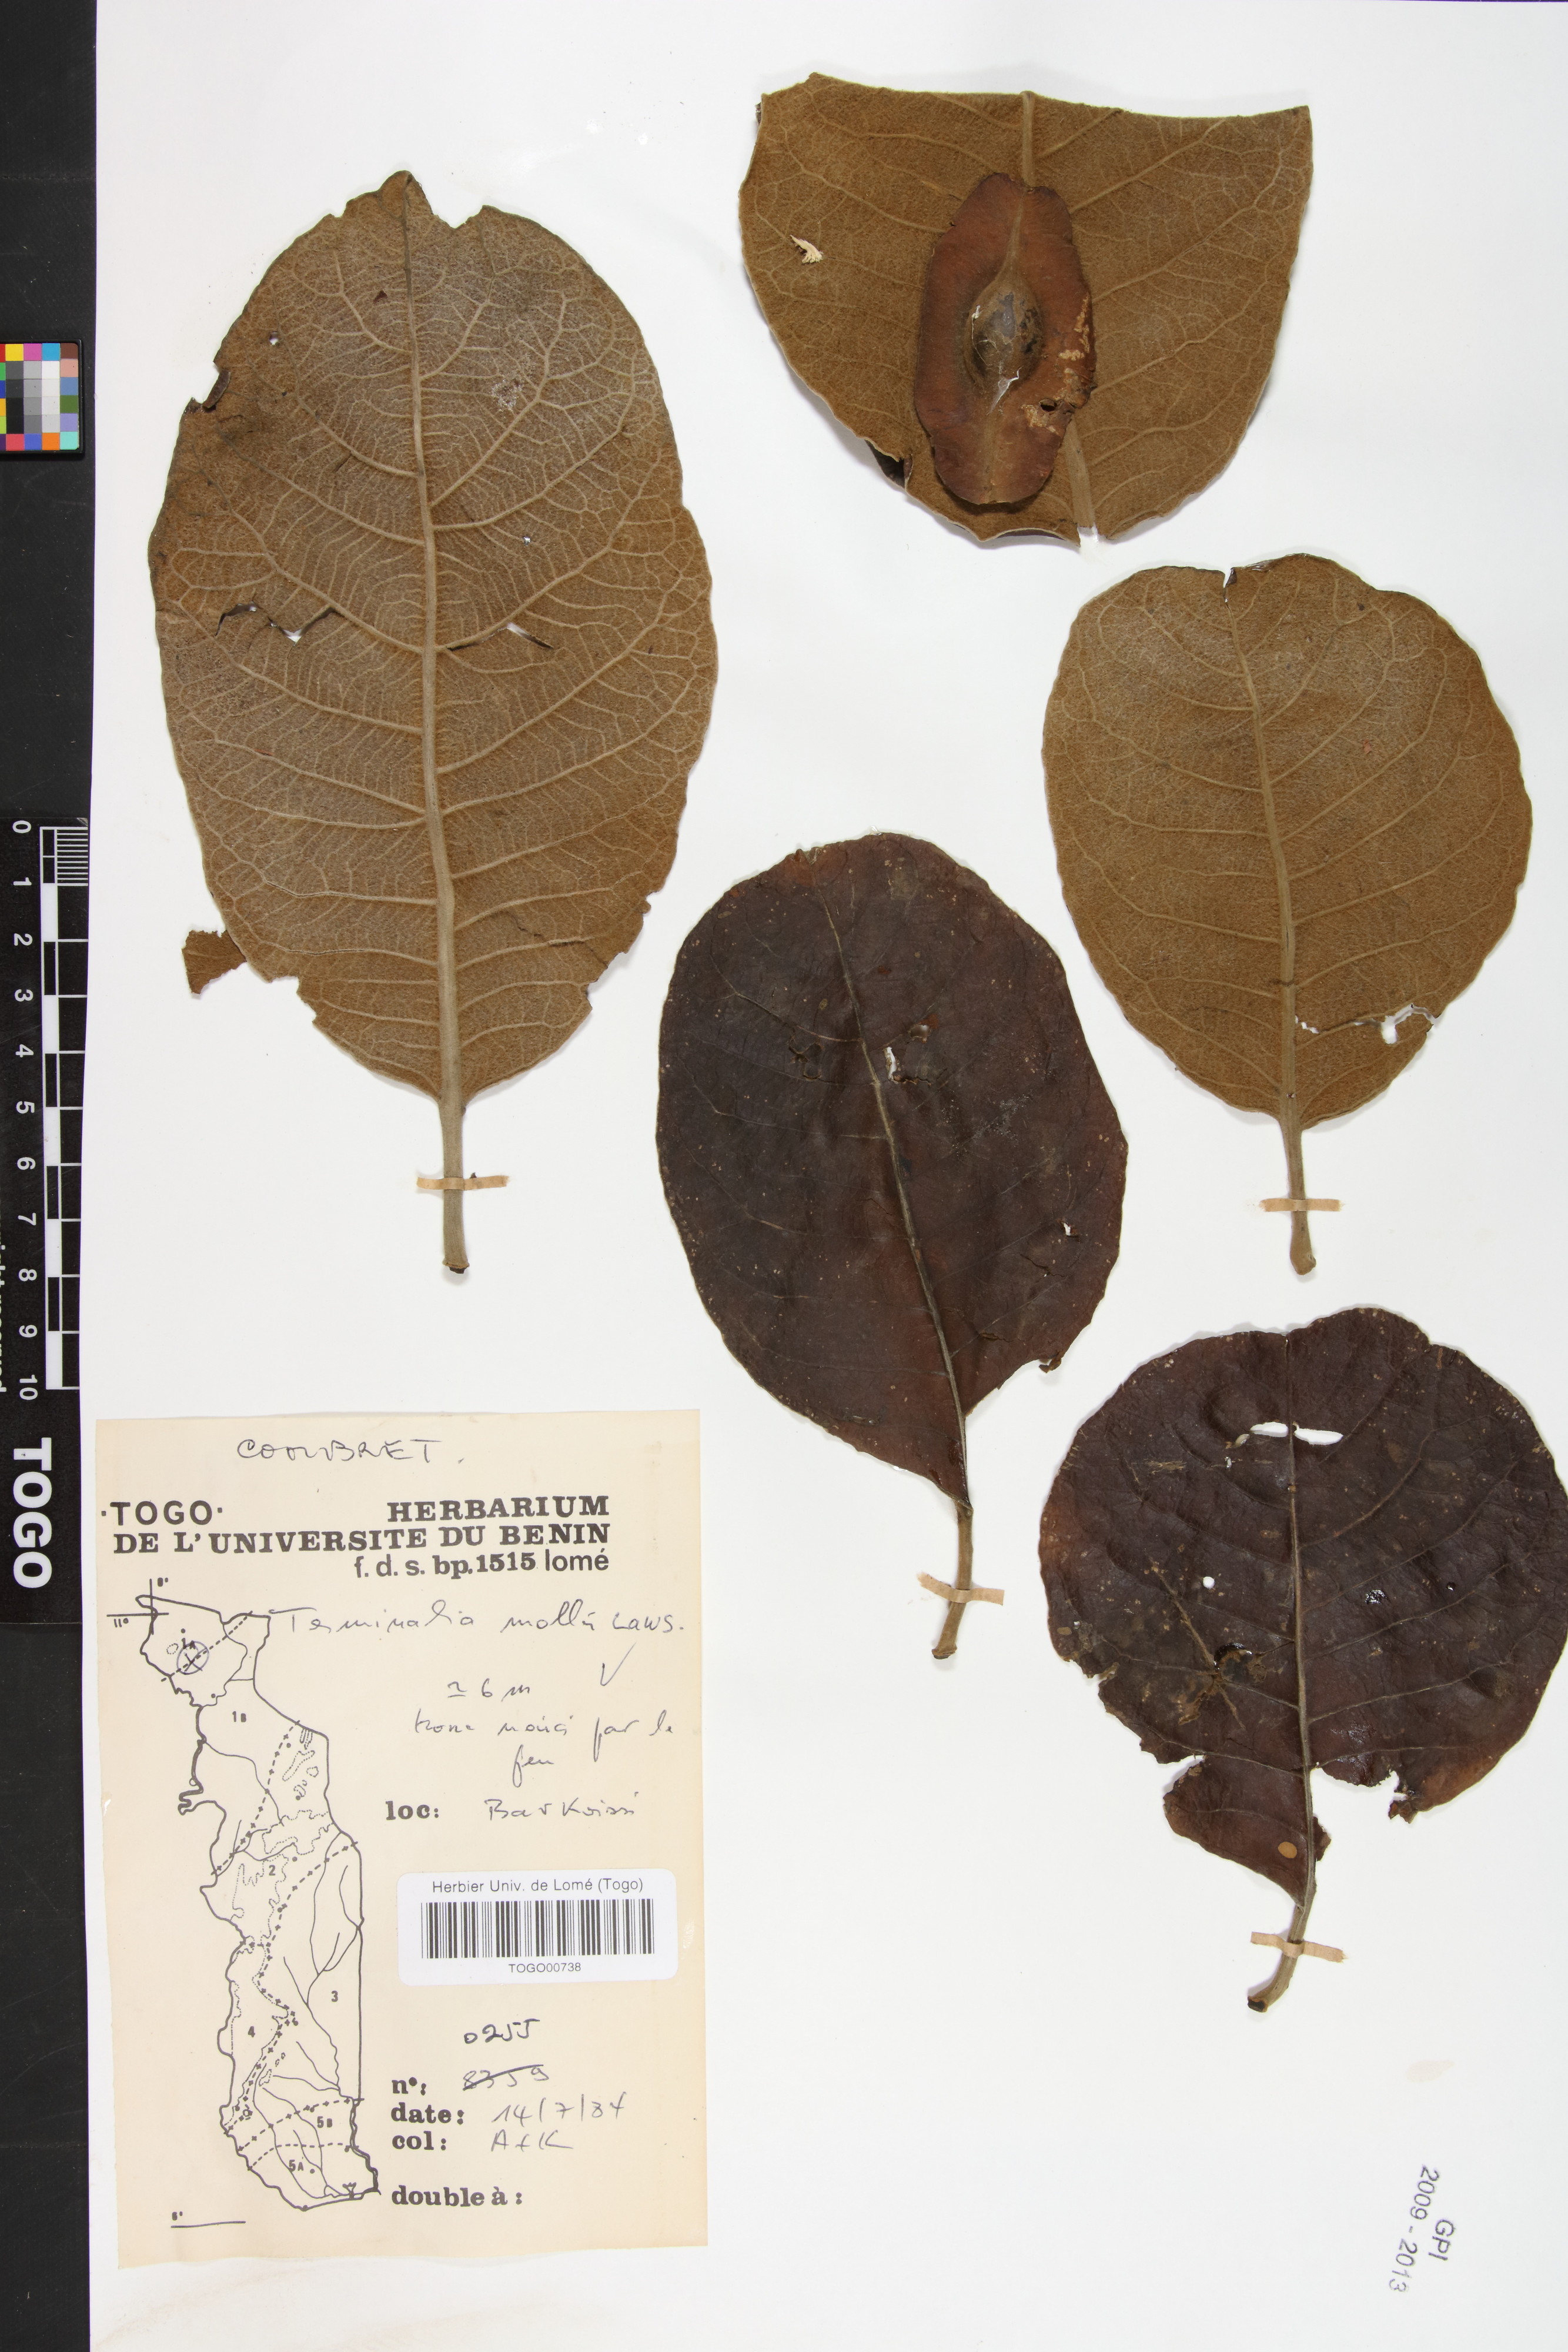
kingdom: Plantae
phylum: Tracheophyta
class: Magnoliopsida
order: Myrtales
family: Combretaceae
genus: Terminalia
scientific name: Terminalia mollis
